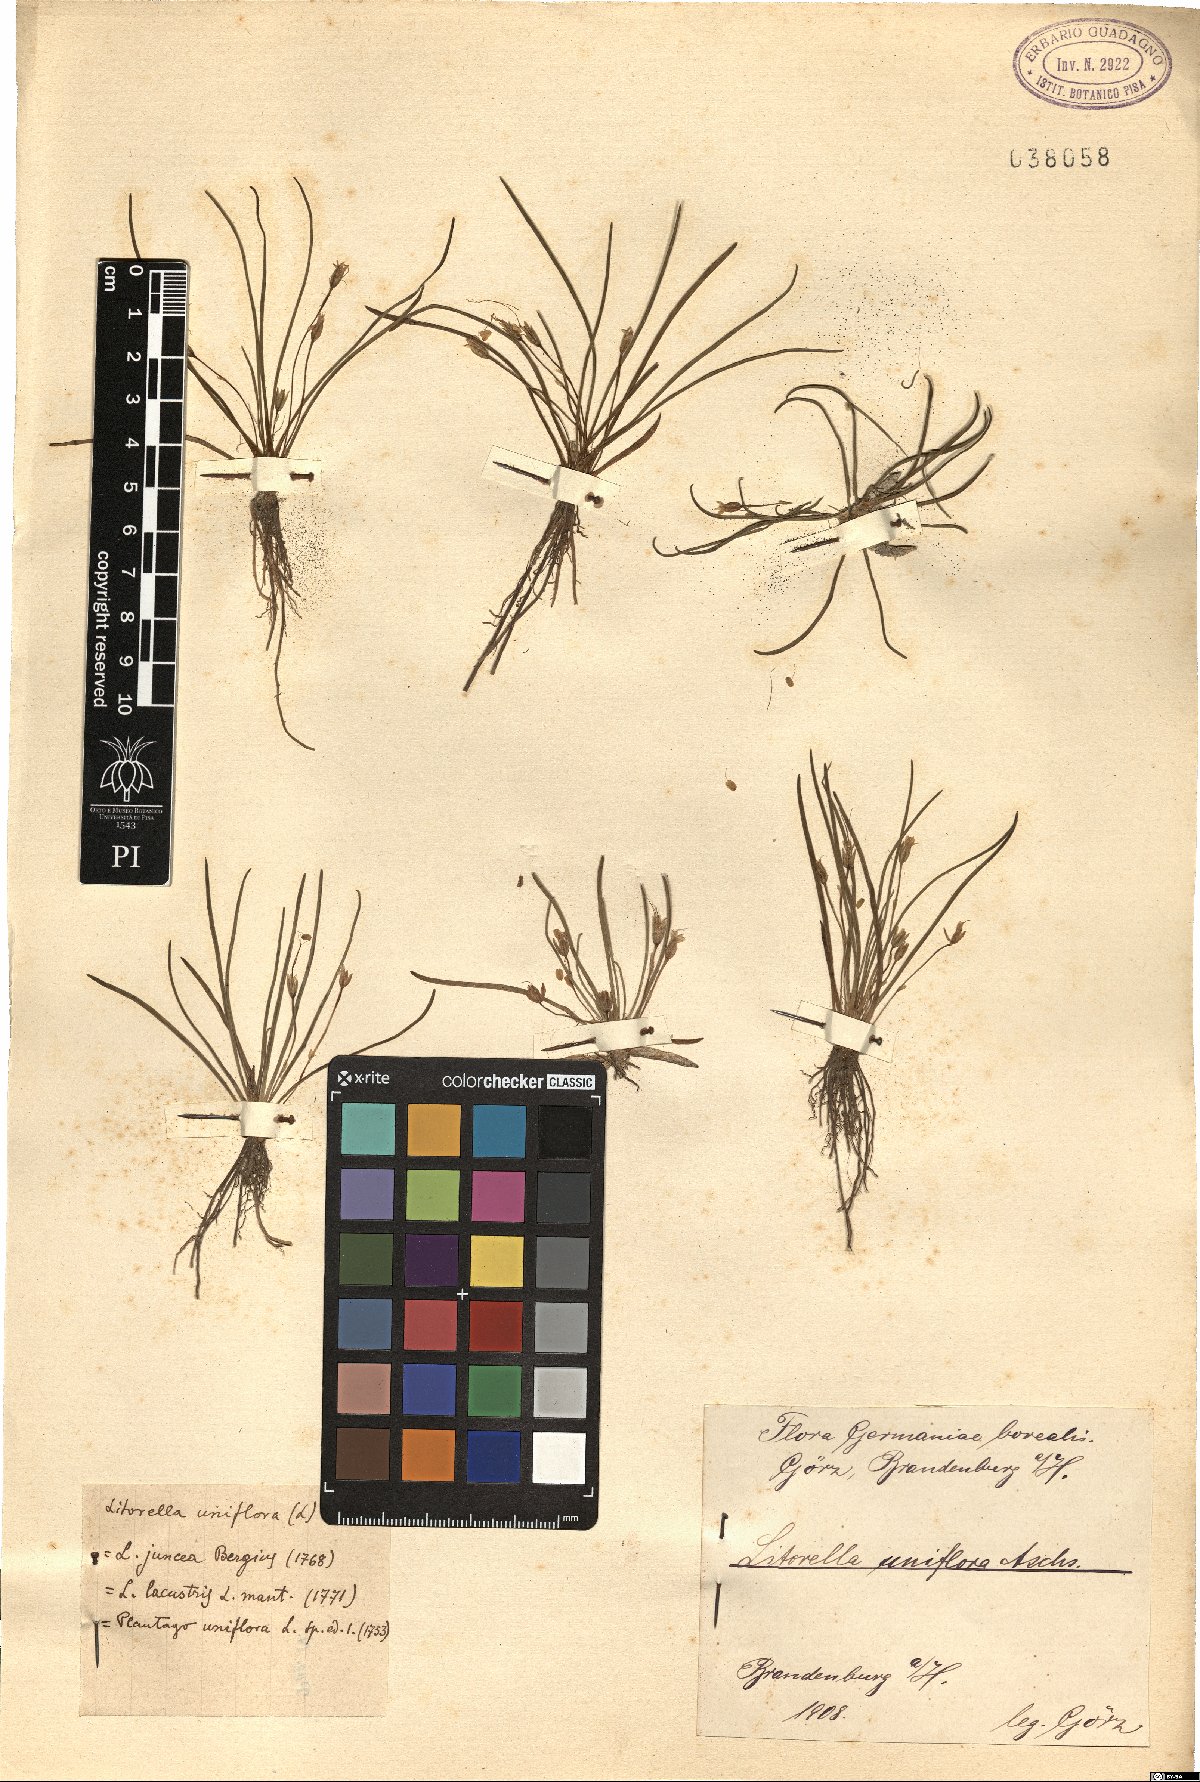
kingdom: Plantae
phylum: Tracheophyta
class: Magnoliopsida
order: Lamiales
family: Plantaginaceae
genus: Littorella
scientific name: Littorella uniflora
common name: Shoreweed
